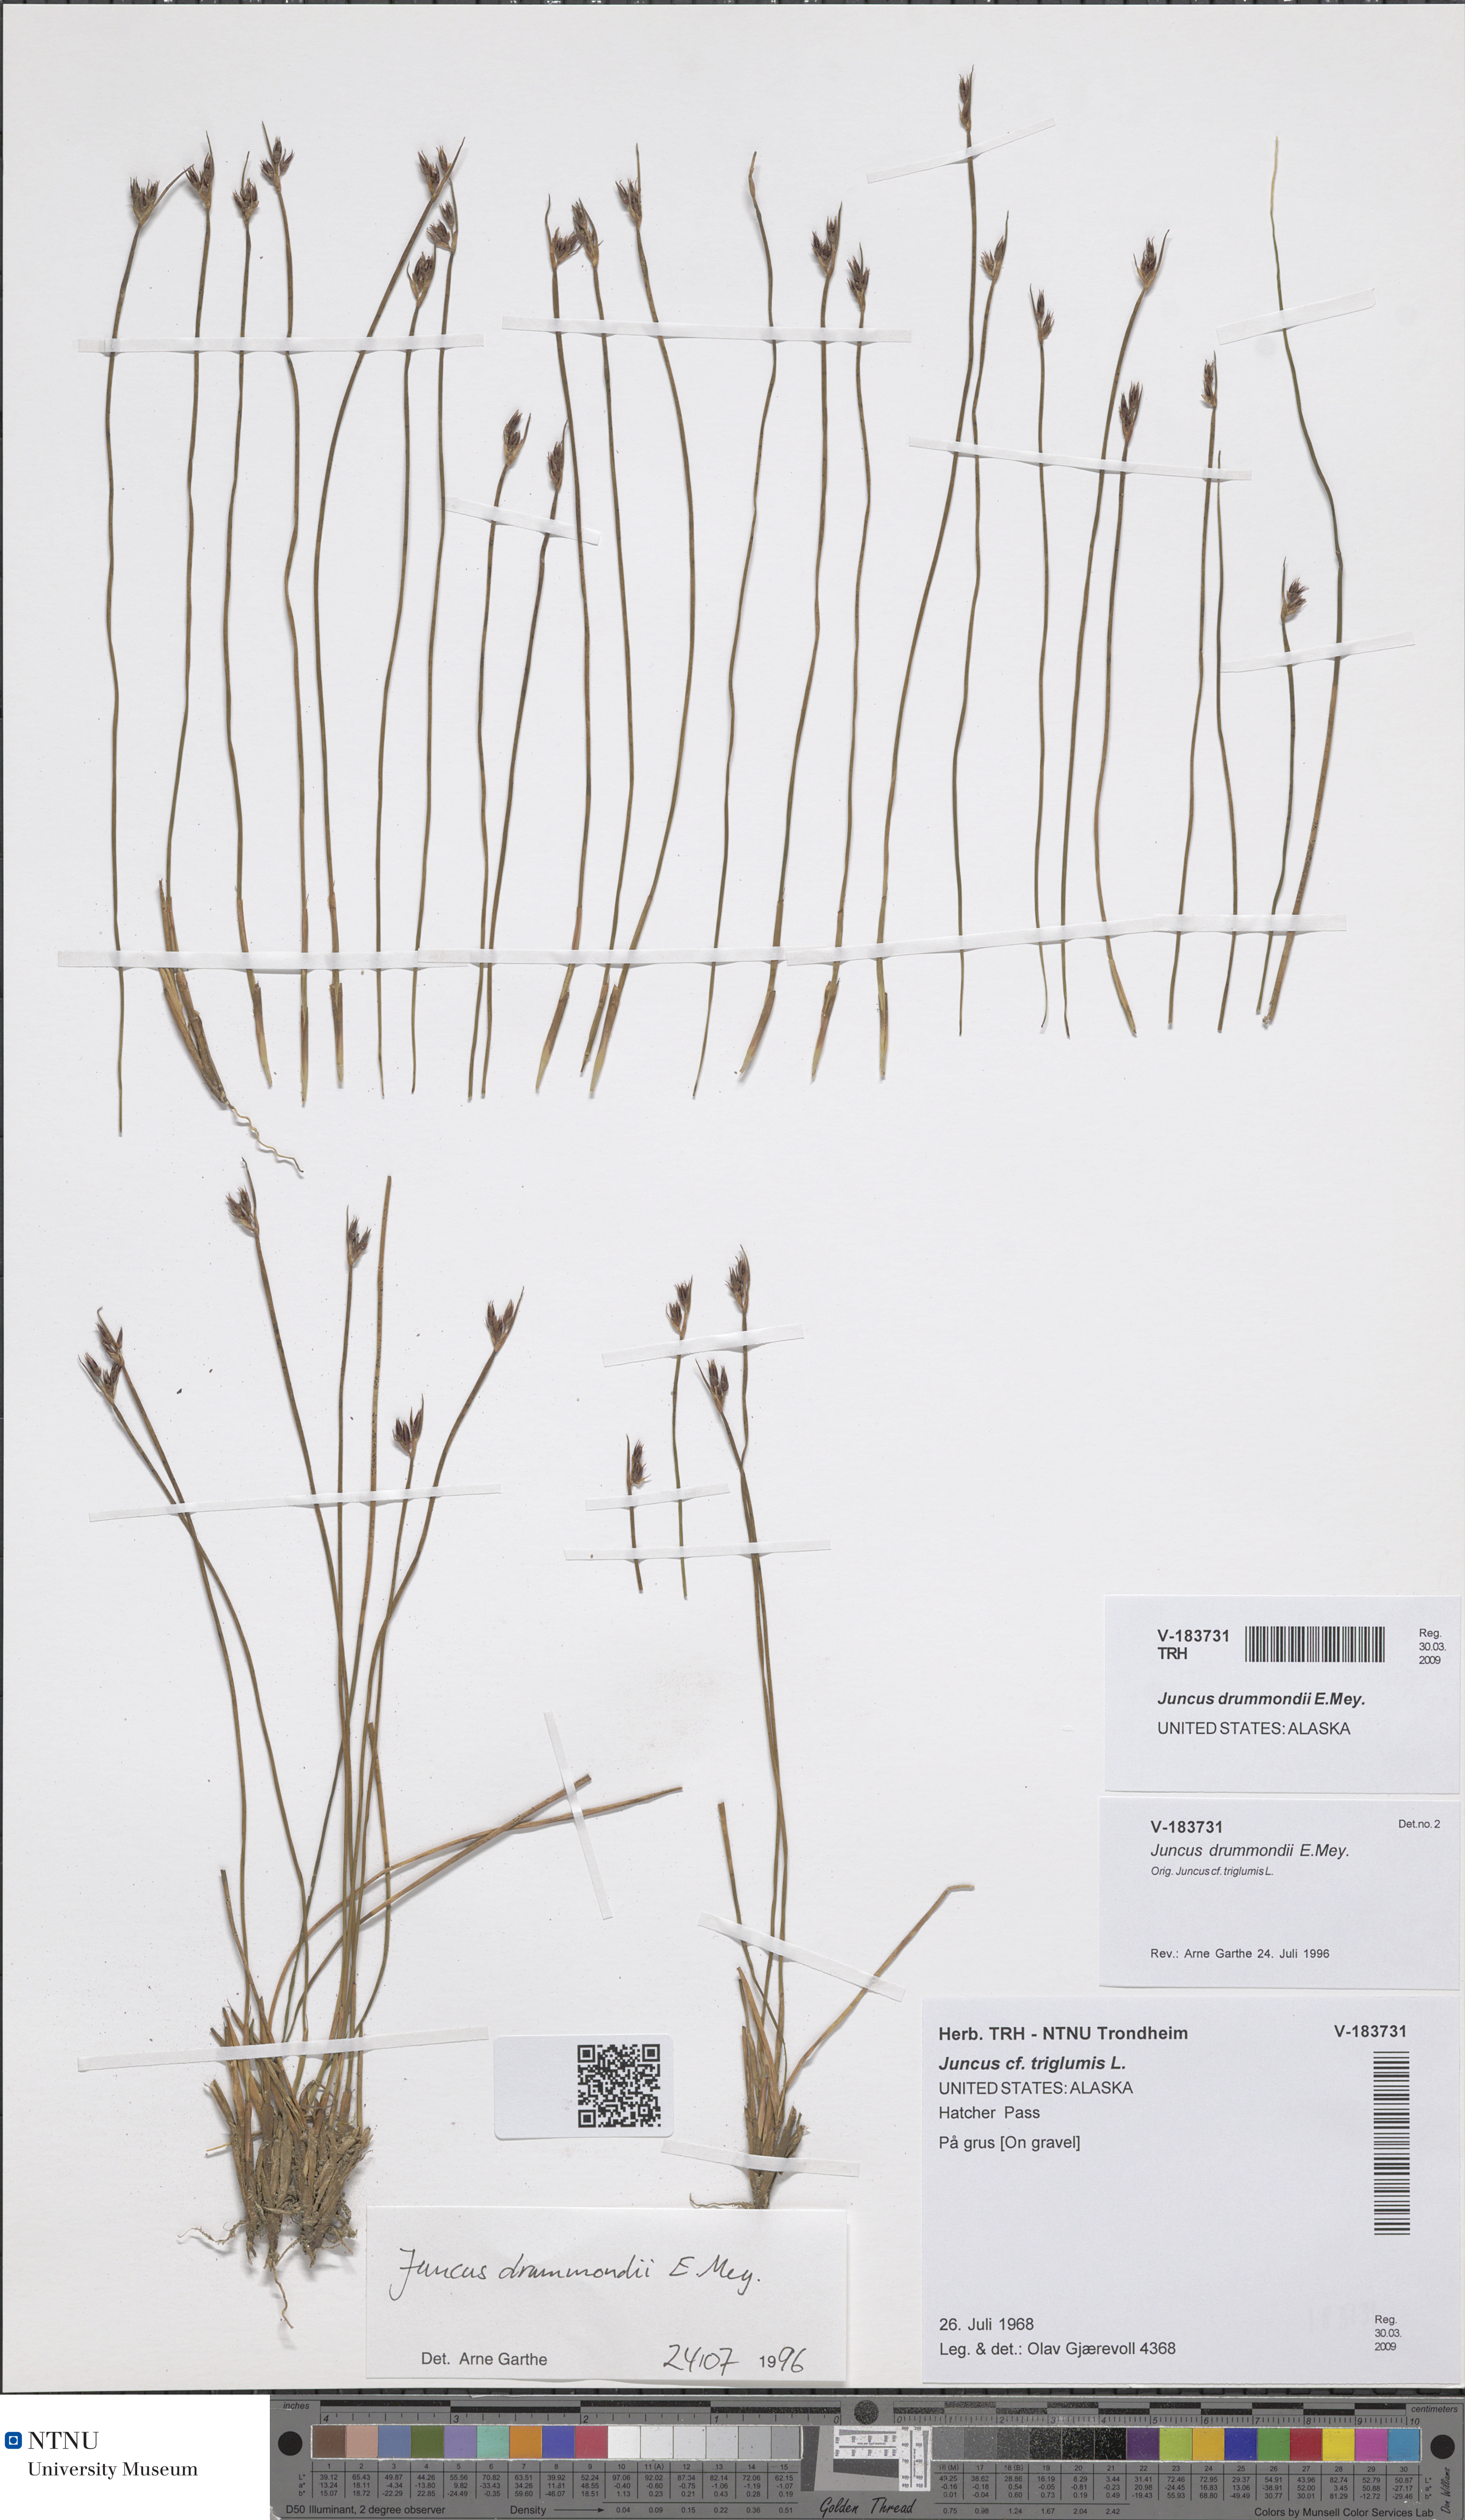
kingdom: Plantae
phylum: Tracheophyta
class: Liliopsida
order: Poales
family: Juncaceae
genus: Juncus
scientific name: Juncus drummondii
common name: Drummond's rush
